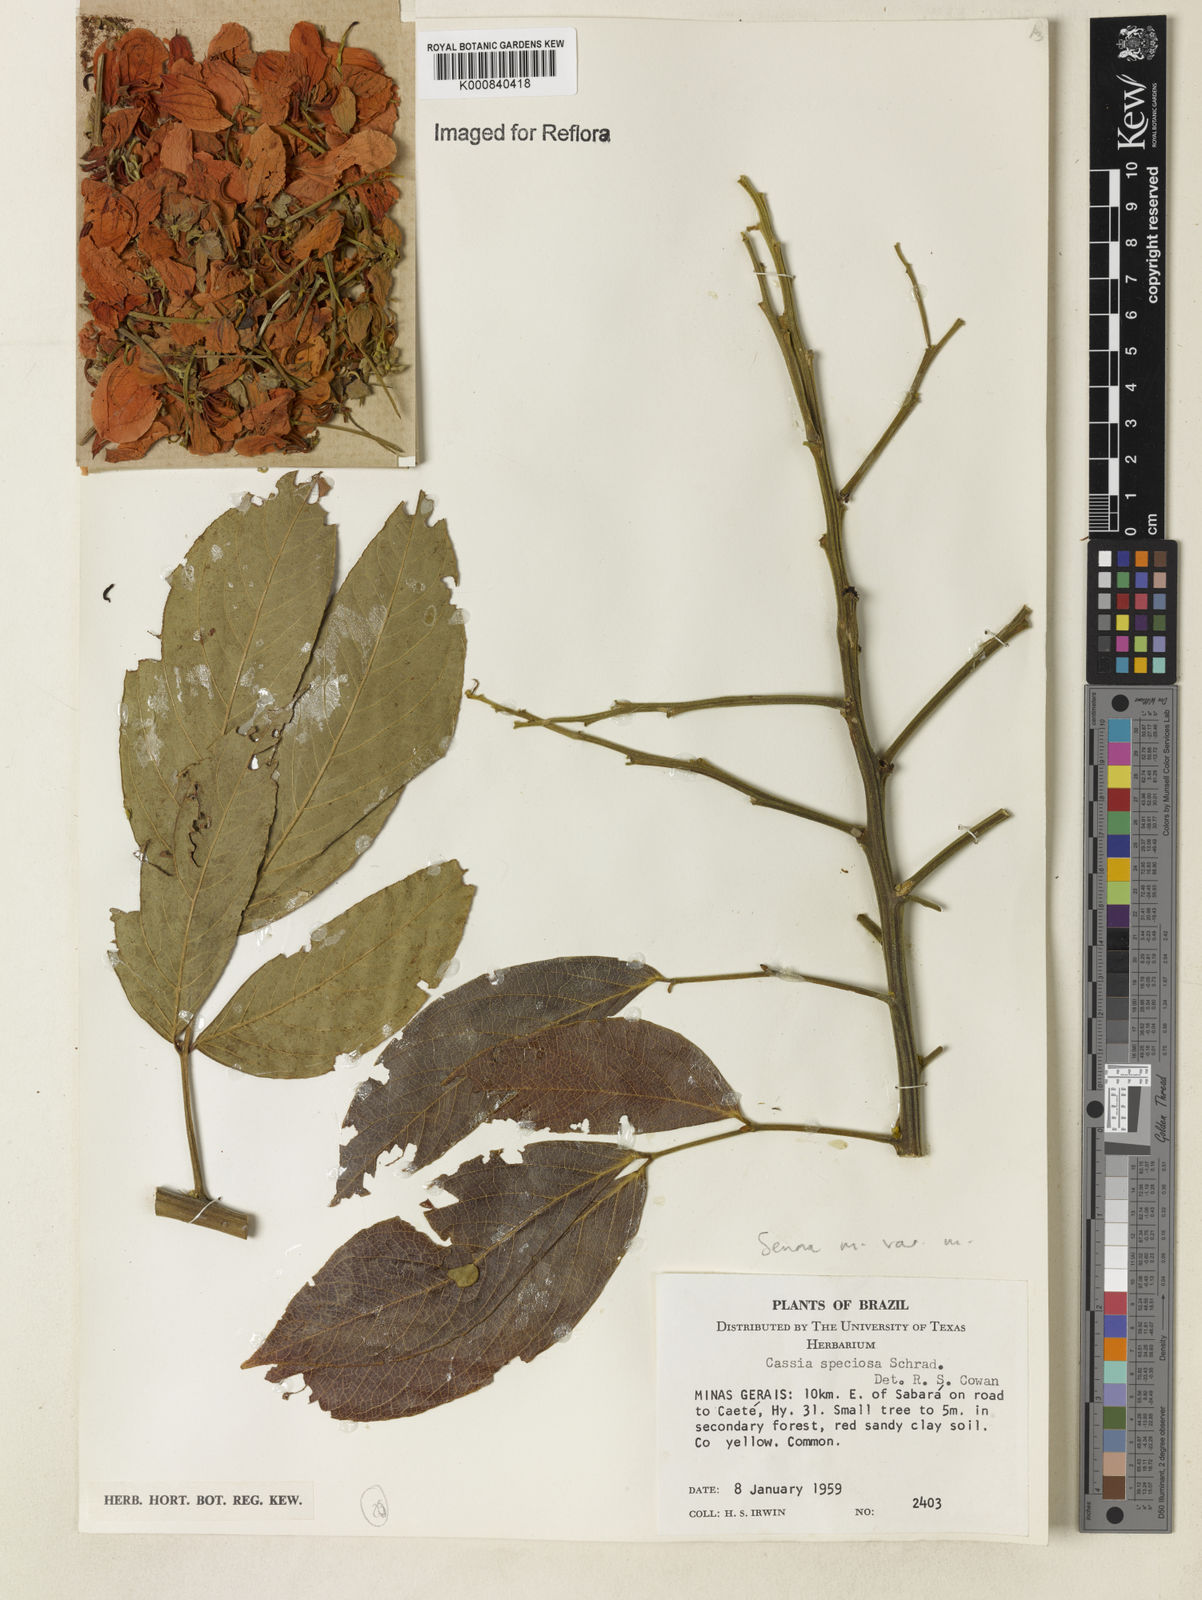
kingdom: Plantae
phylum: Tracheophyta
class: Magnoliopsida
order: Fabales
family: Fabaceae
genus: Senna
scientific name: Senna macranthera
